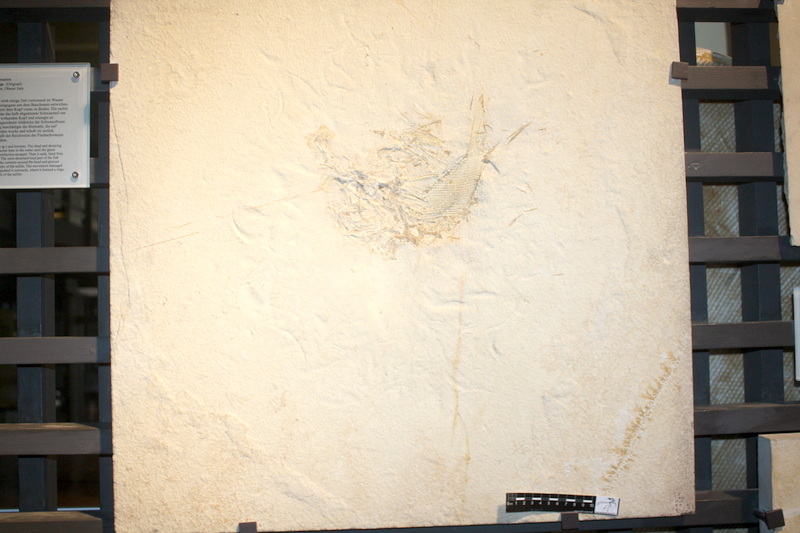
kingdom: Animalia
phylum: Chordata
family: Ophiopsiellidae
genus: Ophiopsiella
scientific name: Ophiopsiella
